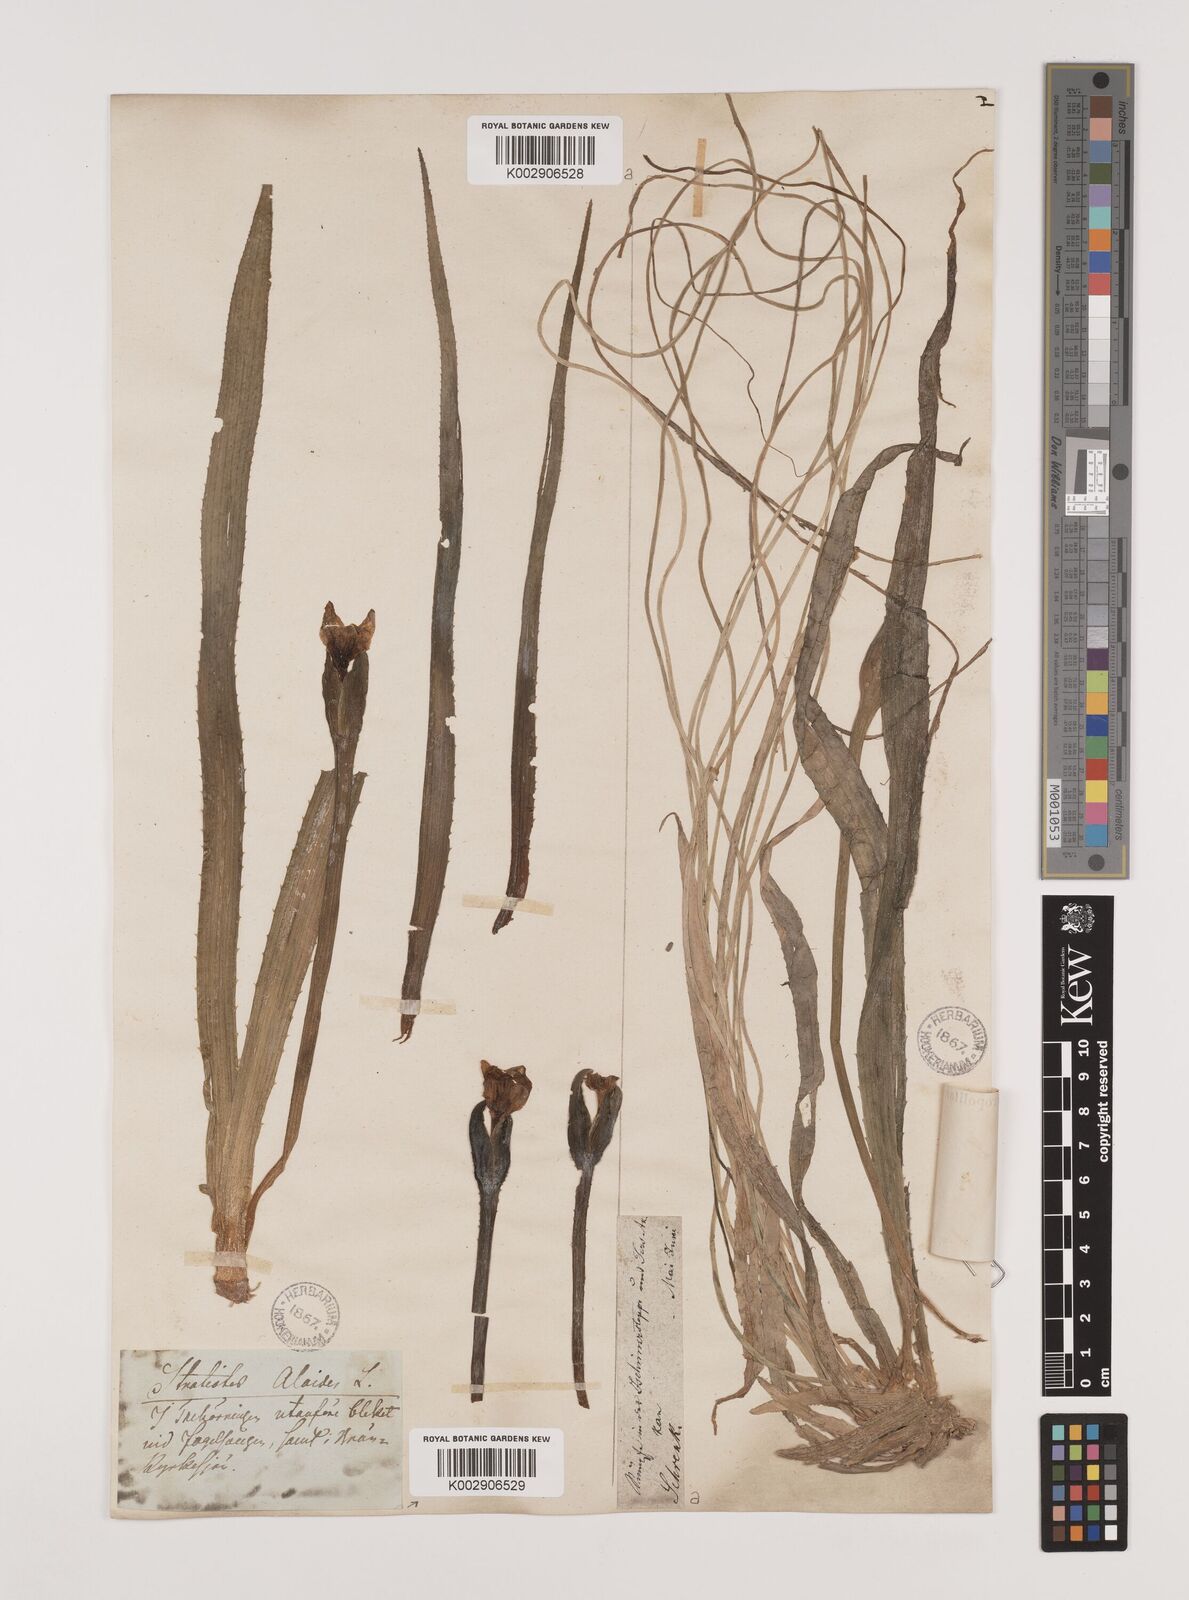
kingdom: Plantae
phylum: Tracheophyta
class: Liliopsida
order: Alismatales
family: Hydrocharitaceae
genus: Stratiotes
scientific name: Stratiotes aloides
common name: Water-soldier
